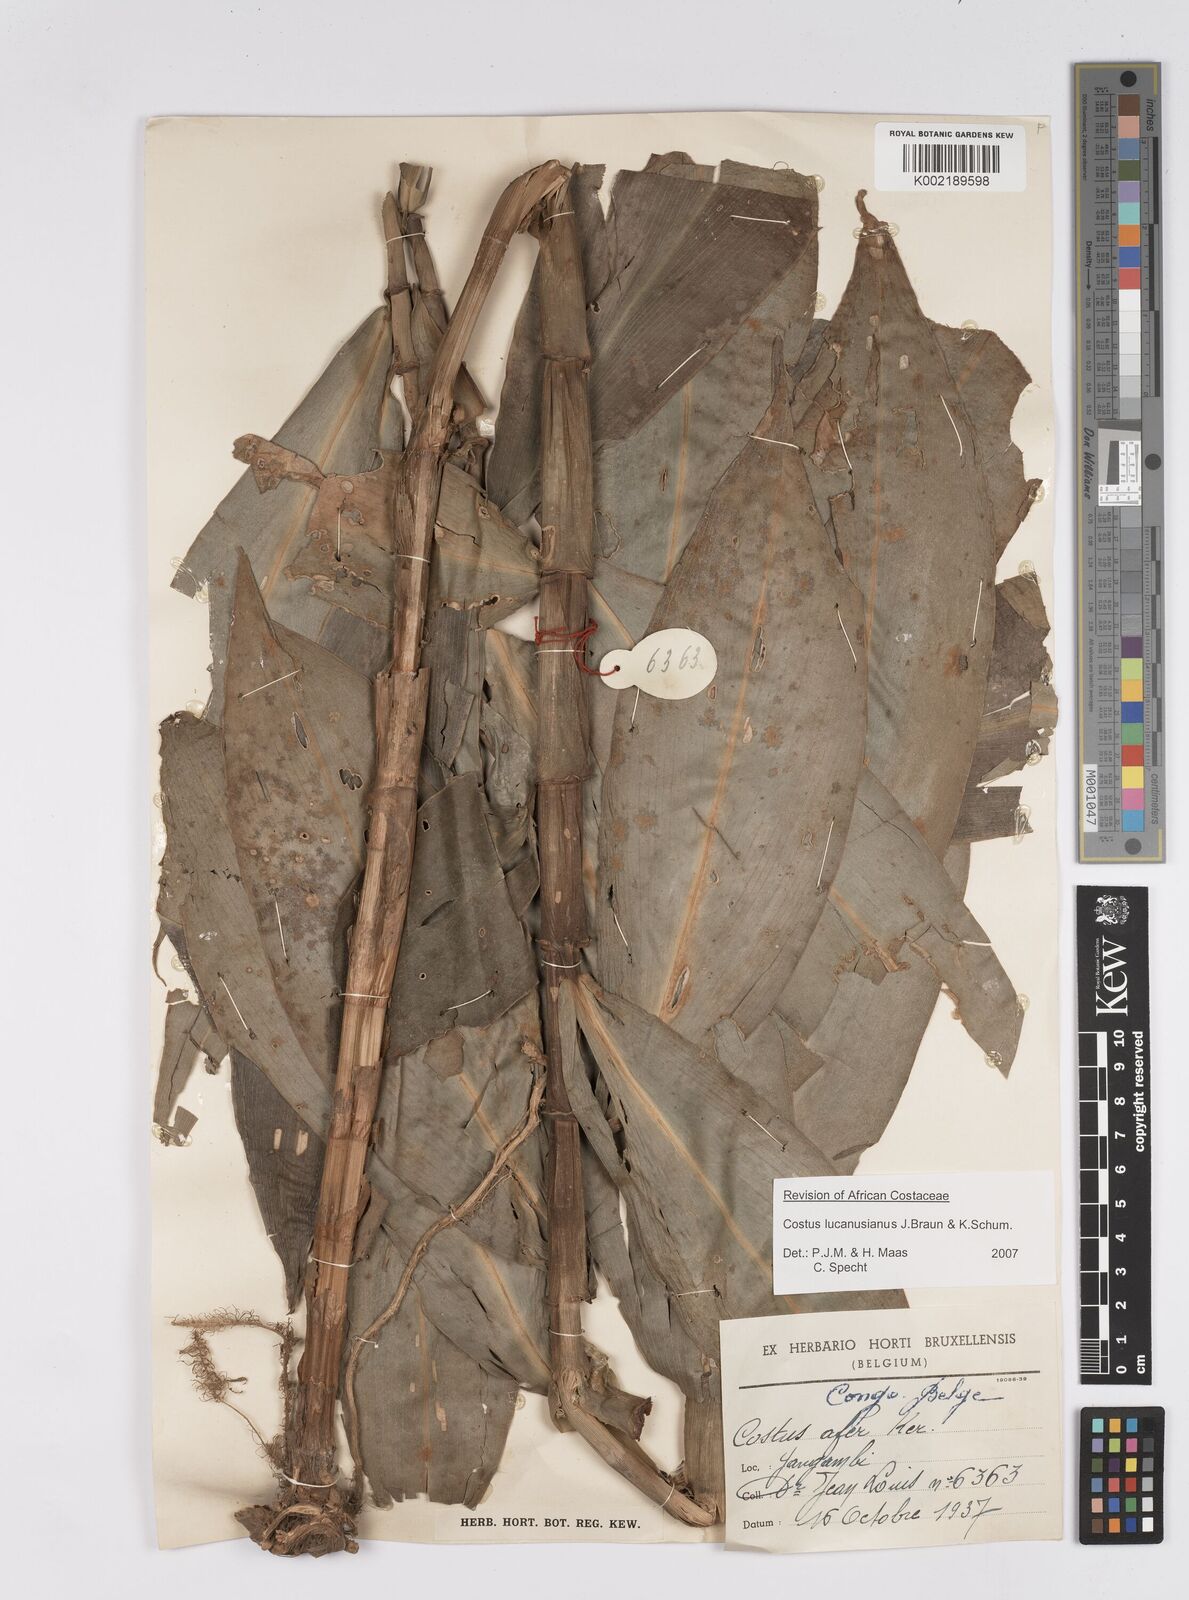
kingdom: Plantae
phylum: Tracheophyta
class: Liliopsida
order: Zingiberales
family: Costaceae
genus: Costus
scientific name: Costus lucanusianus
